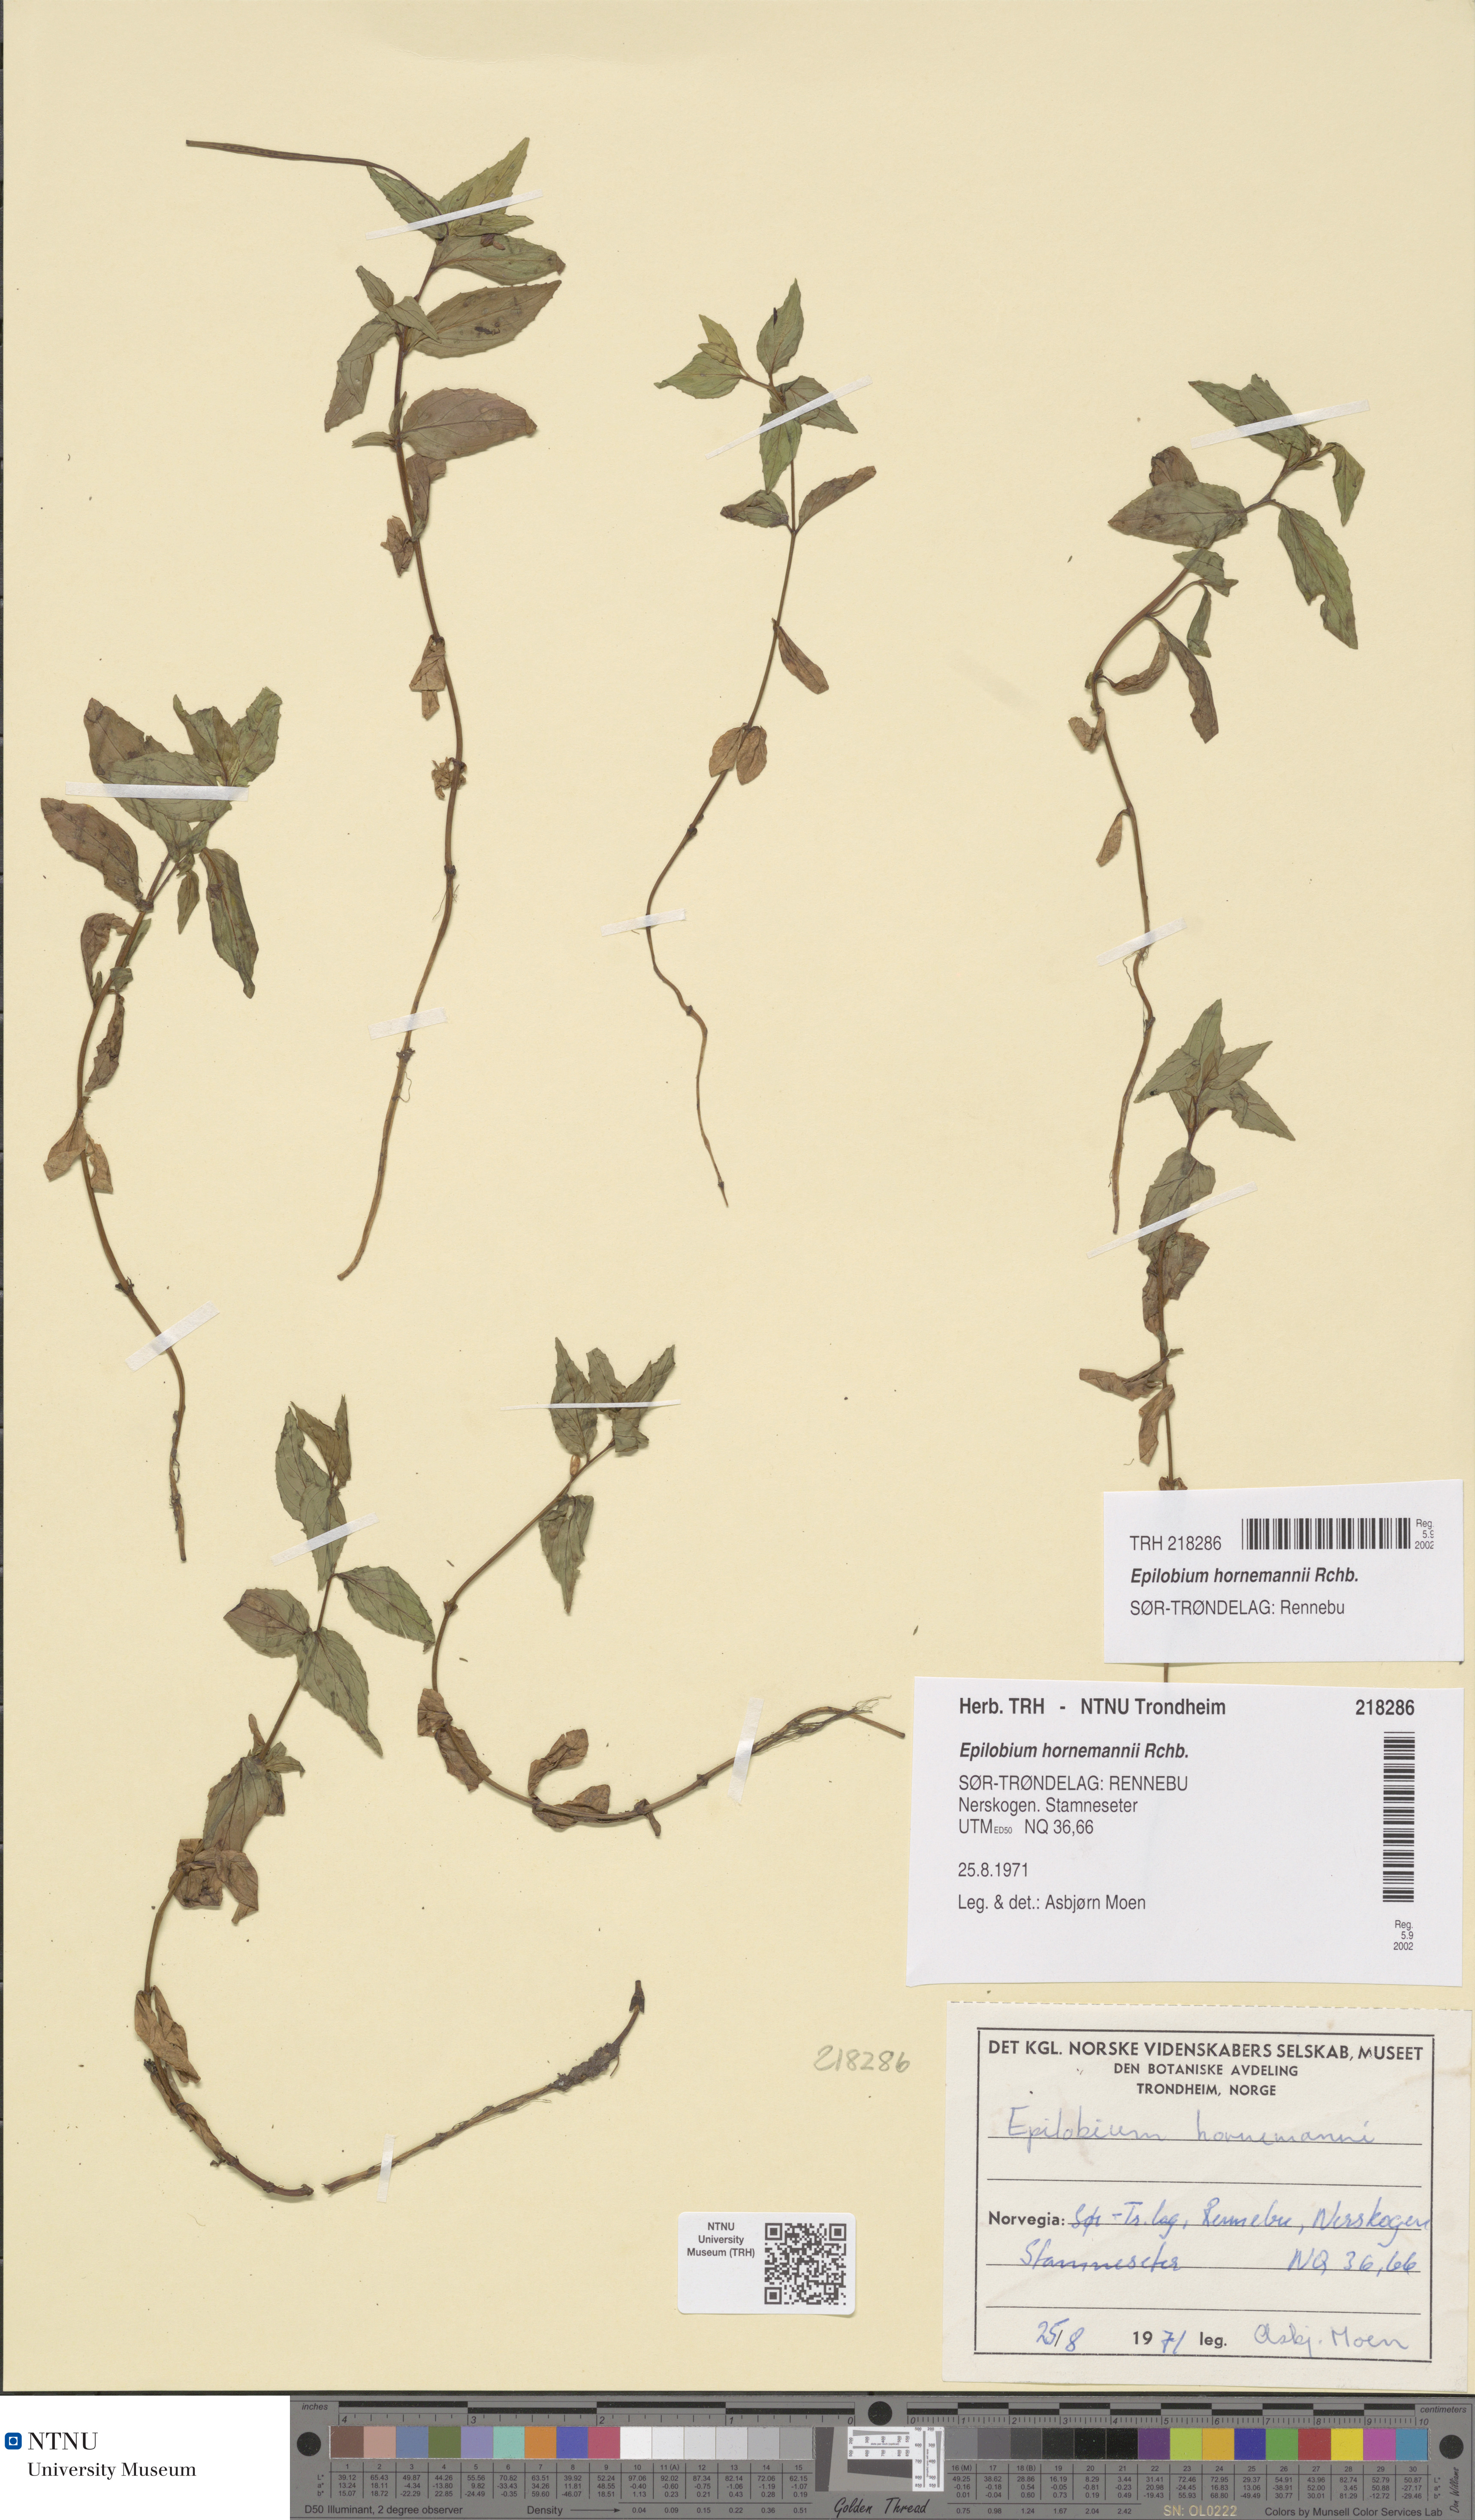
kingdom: Plantae
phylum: Tracheophyta
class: Magnoliopsida
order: Myrtales
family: Onagraceae
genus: Epilobium
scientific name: Epilobium hornemannii
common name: Hornemann's willowherb
